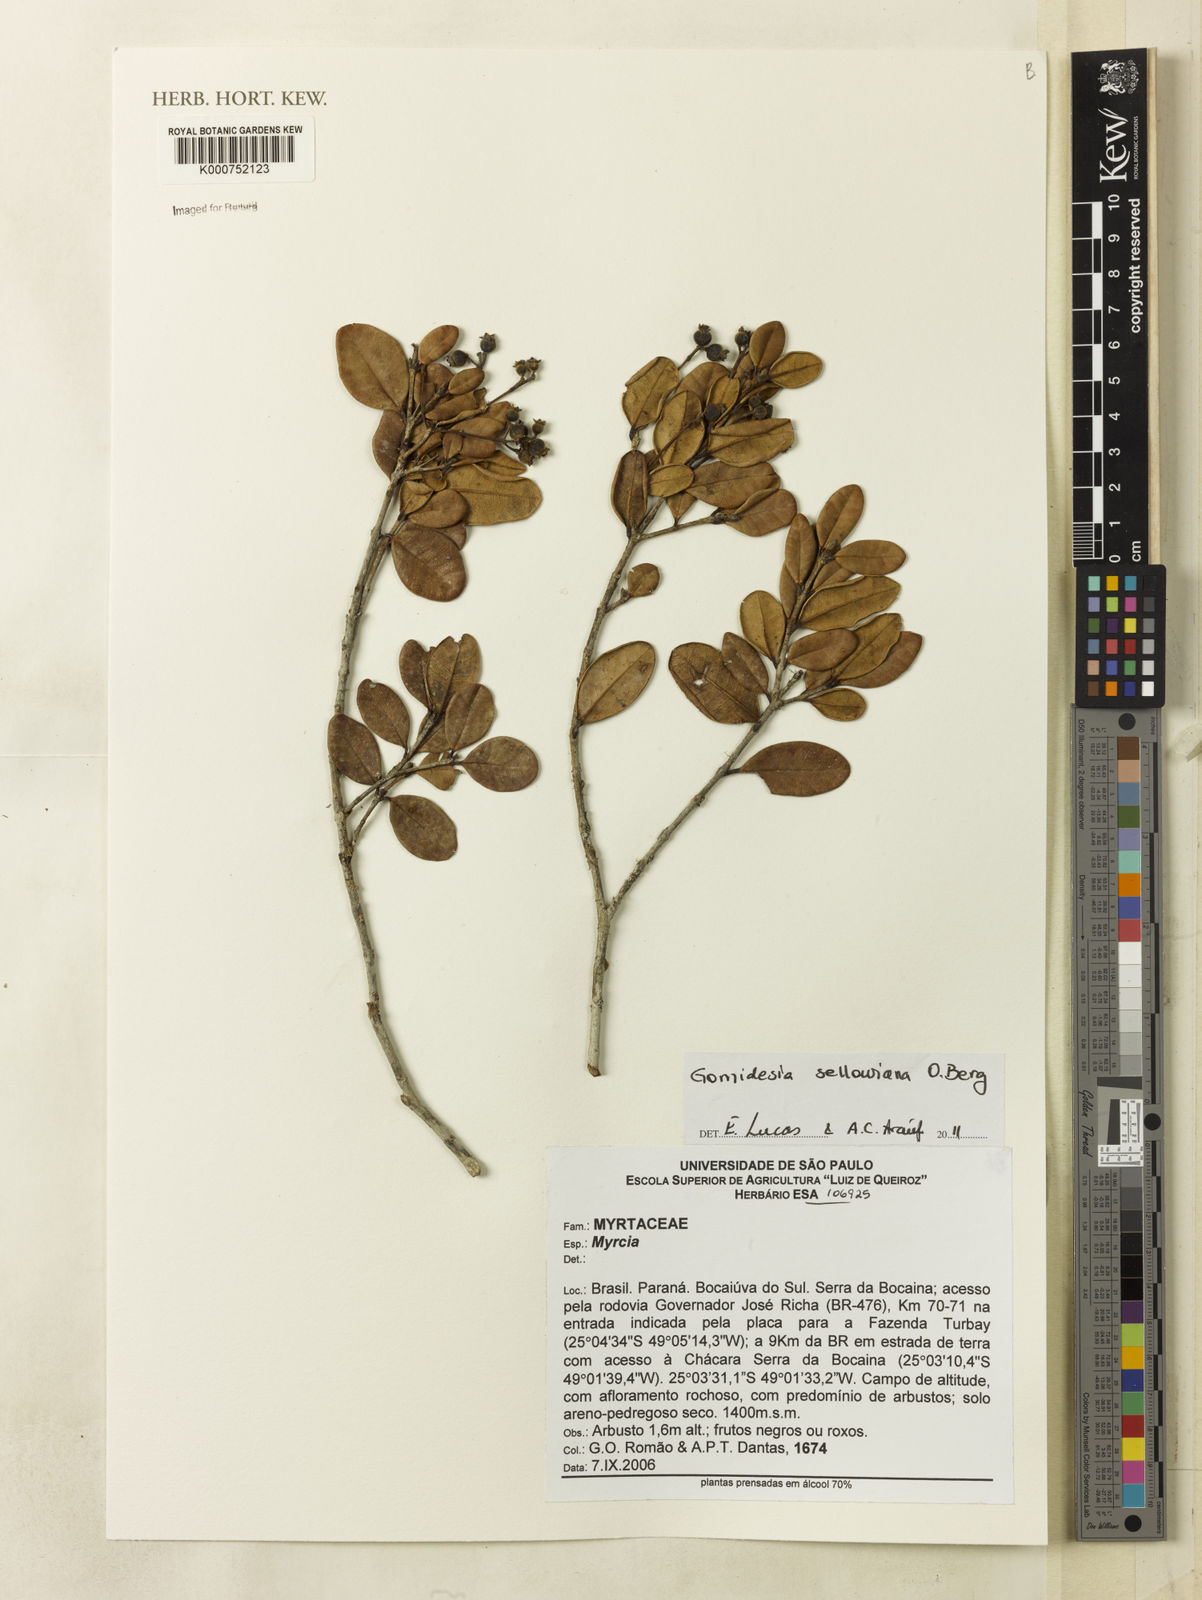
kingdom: Plantae
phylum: Tracheophyta
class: Magnoliopsida
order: Myrtales
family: Myrtaceae
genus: Myrcia
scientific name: Myrcia hartwegiana
